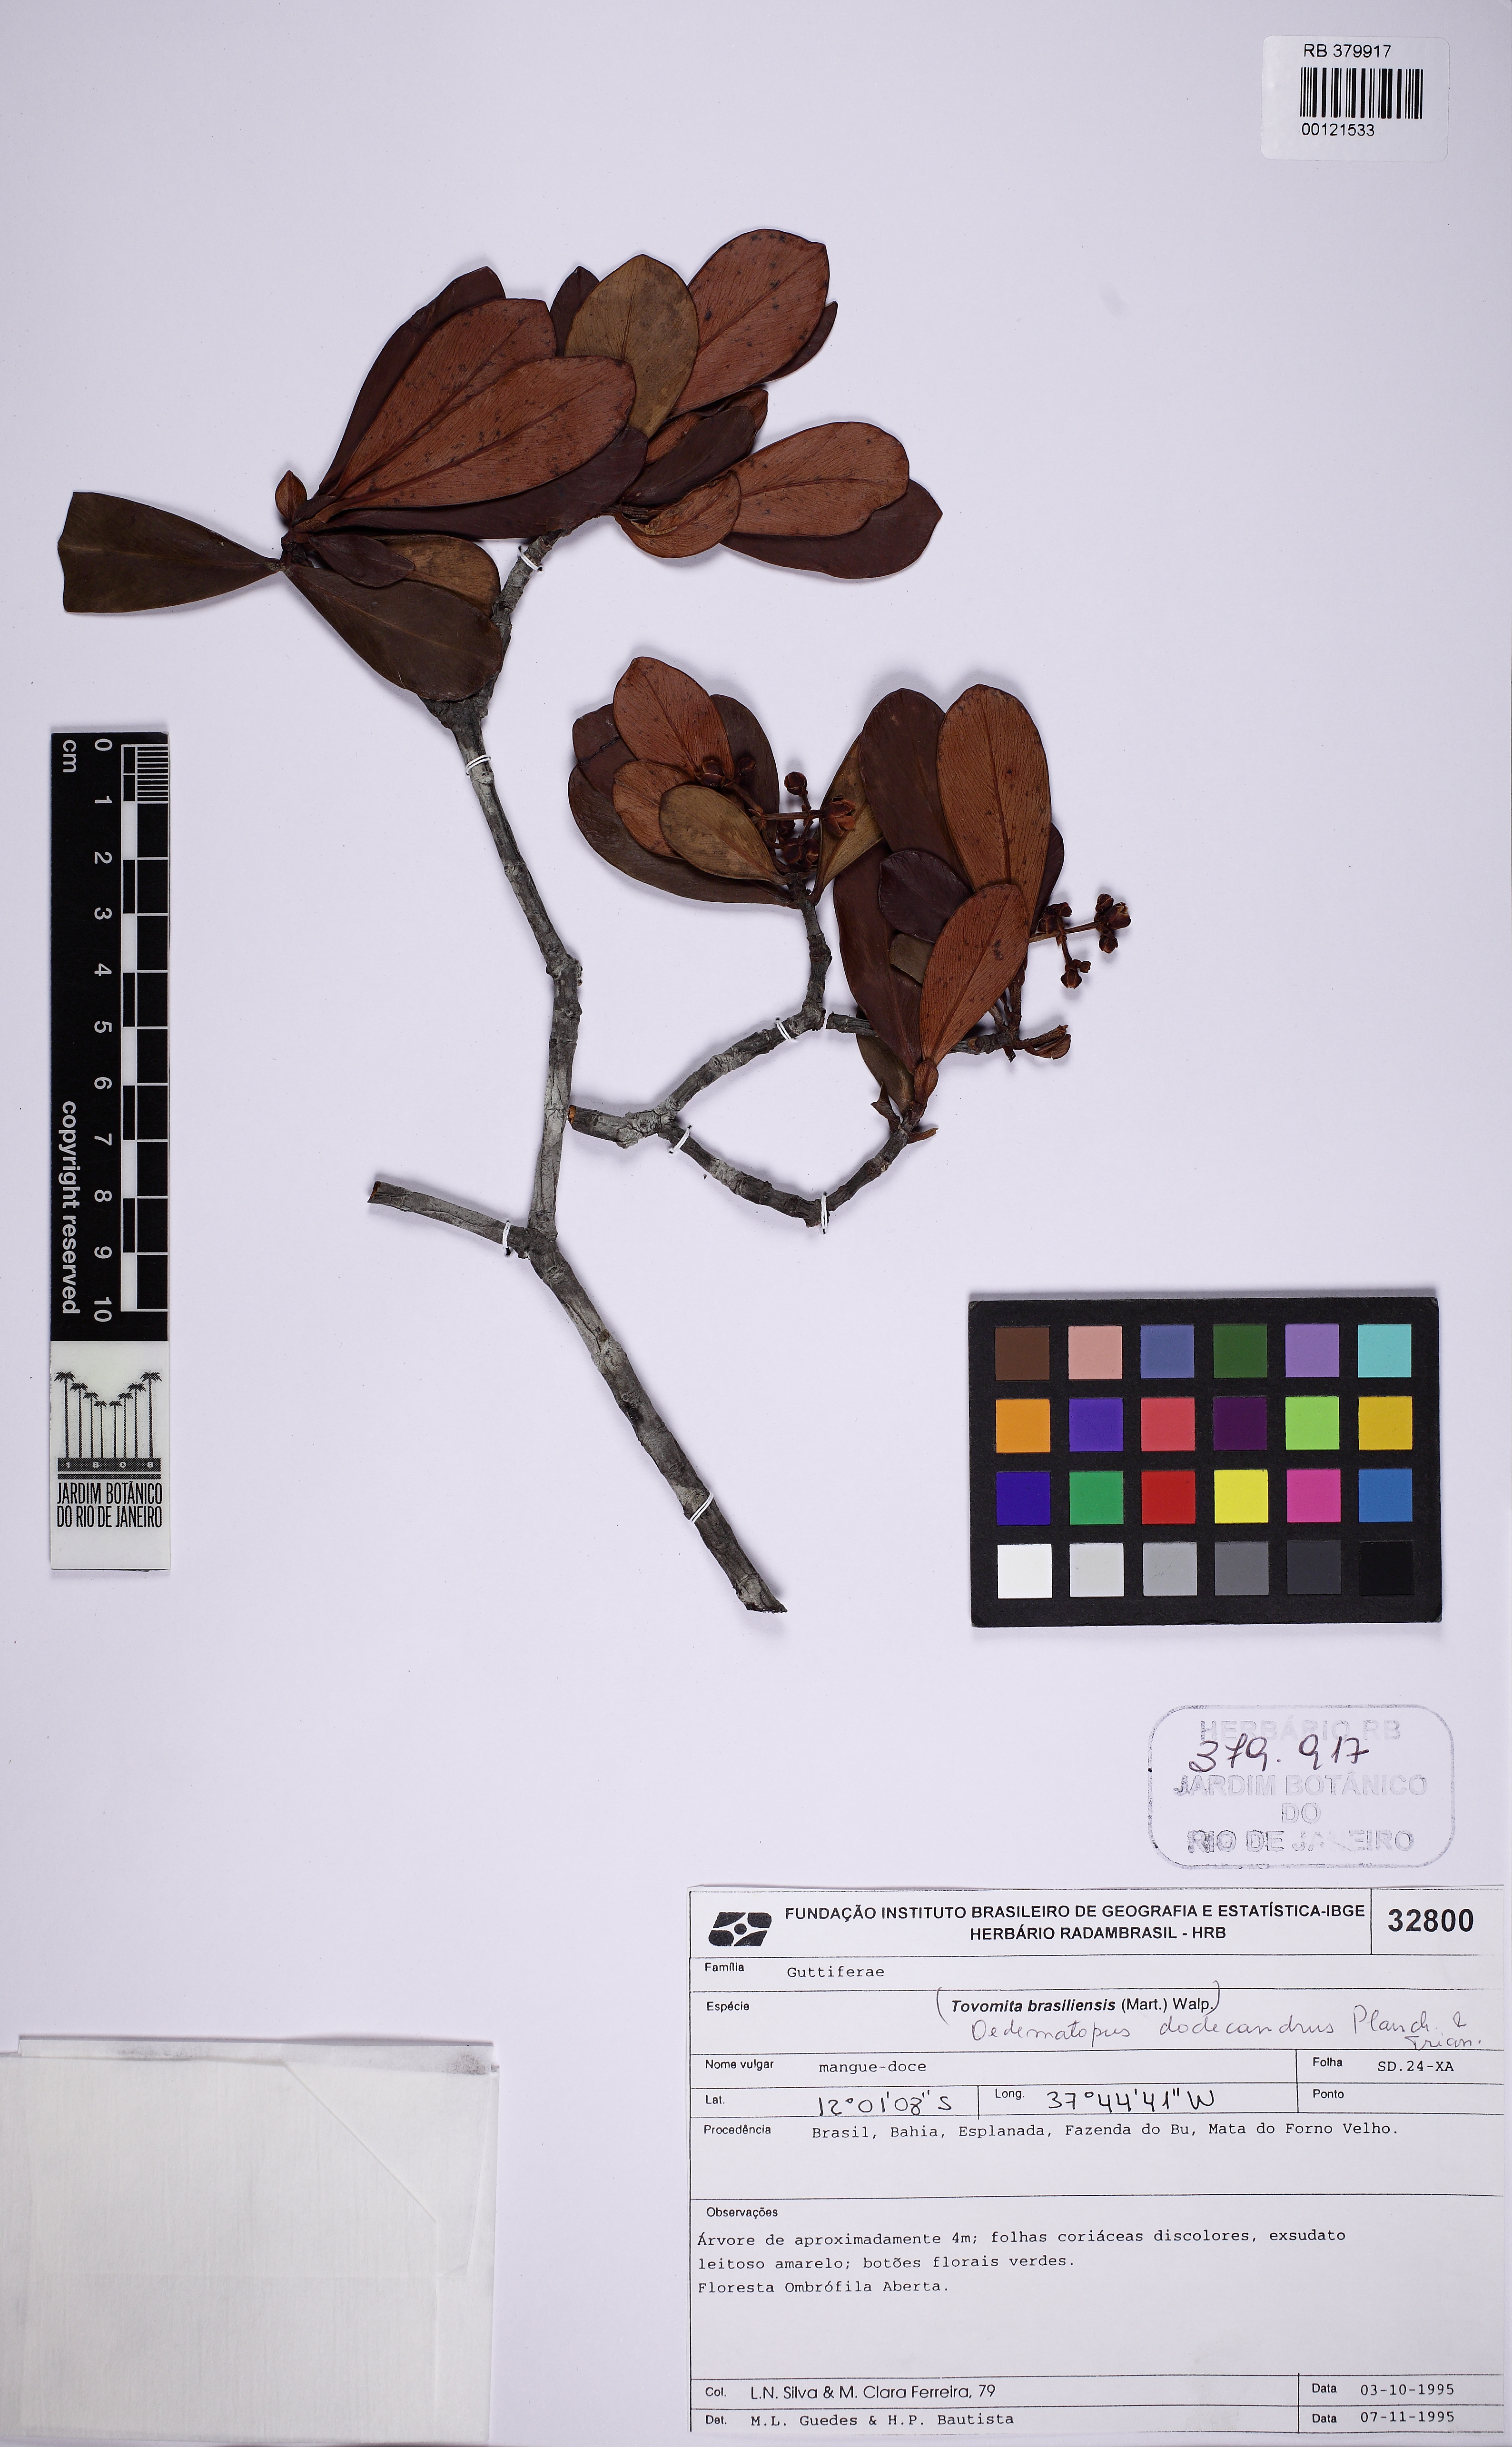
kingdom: Plantae
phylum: Tracheophyta
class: Magnoliopsida
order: Malpighiales
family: Clusiaceae
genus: Clusia
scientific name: Clusia sellowiana
